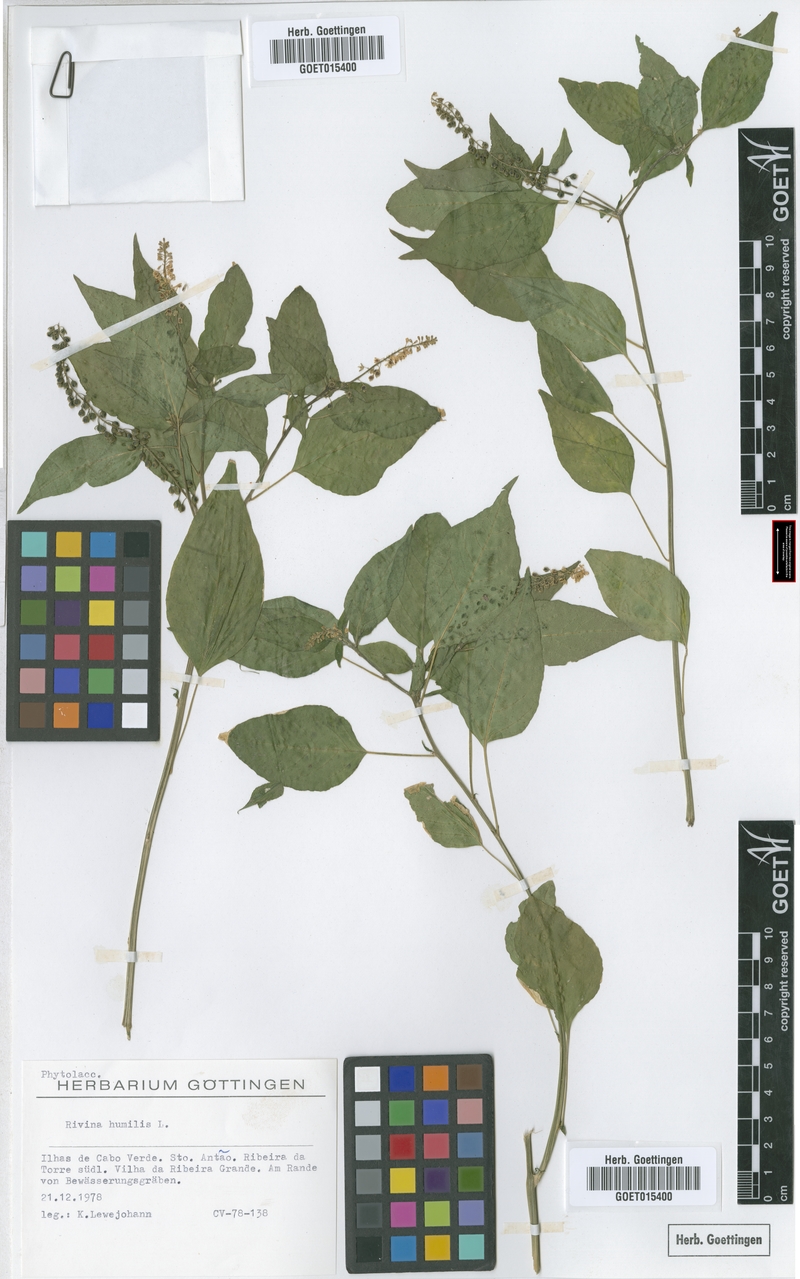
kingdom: Plantae
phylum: Tracheophyta
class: Magnoliopsida
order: Caryophyllales
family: Phytolaccaceae
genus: Rivina
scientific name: Rivina humilis
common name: Rougeplant
